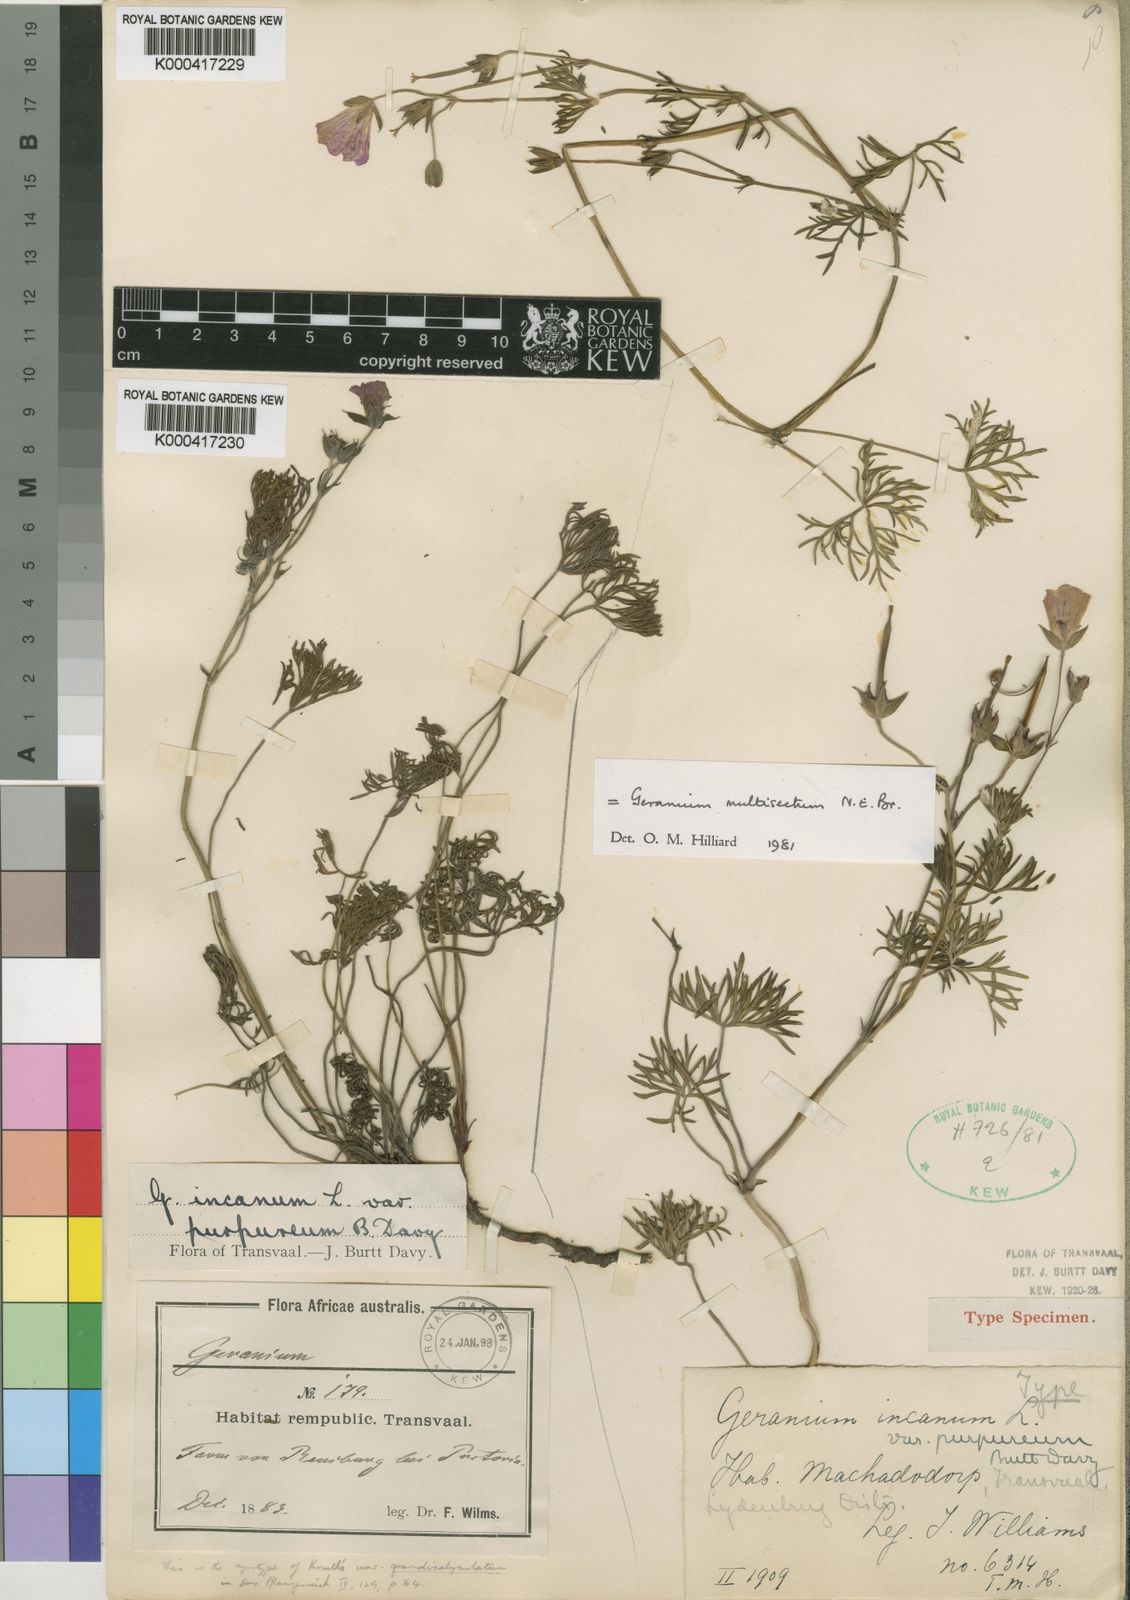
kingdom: Plantae
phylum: Tracheophyta
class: Magnoliopsida
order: Geraniales
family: Geraniaceae
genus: Geranium
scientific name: Geranium incanum
